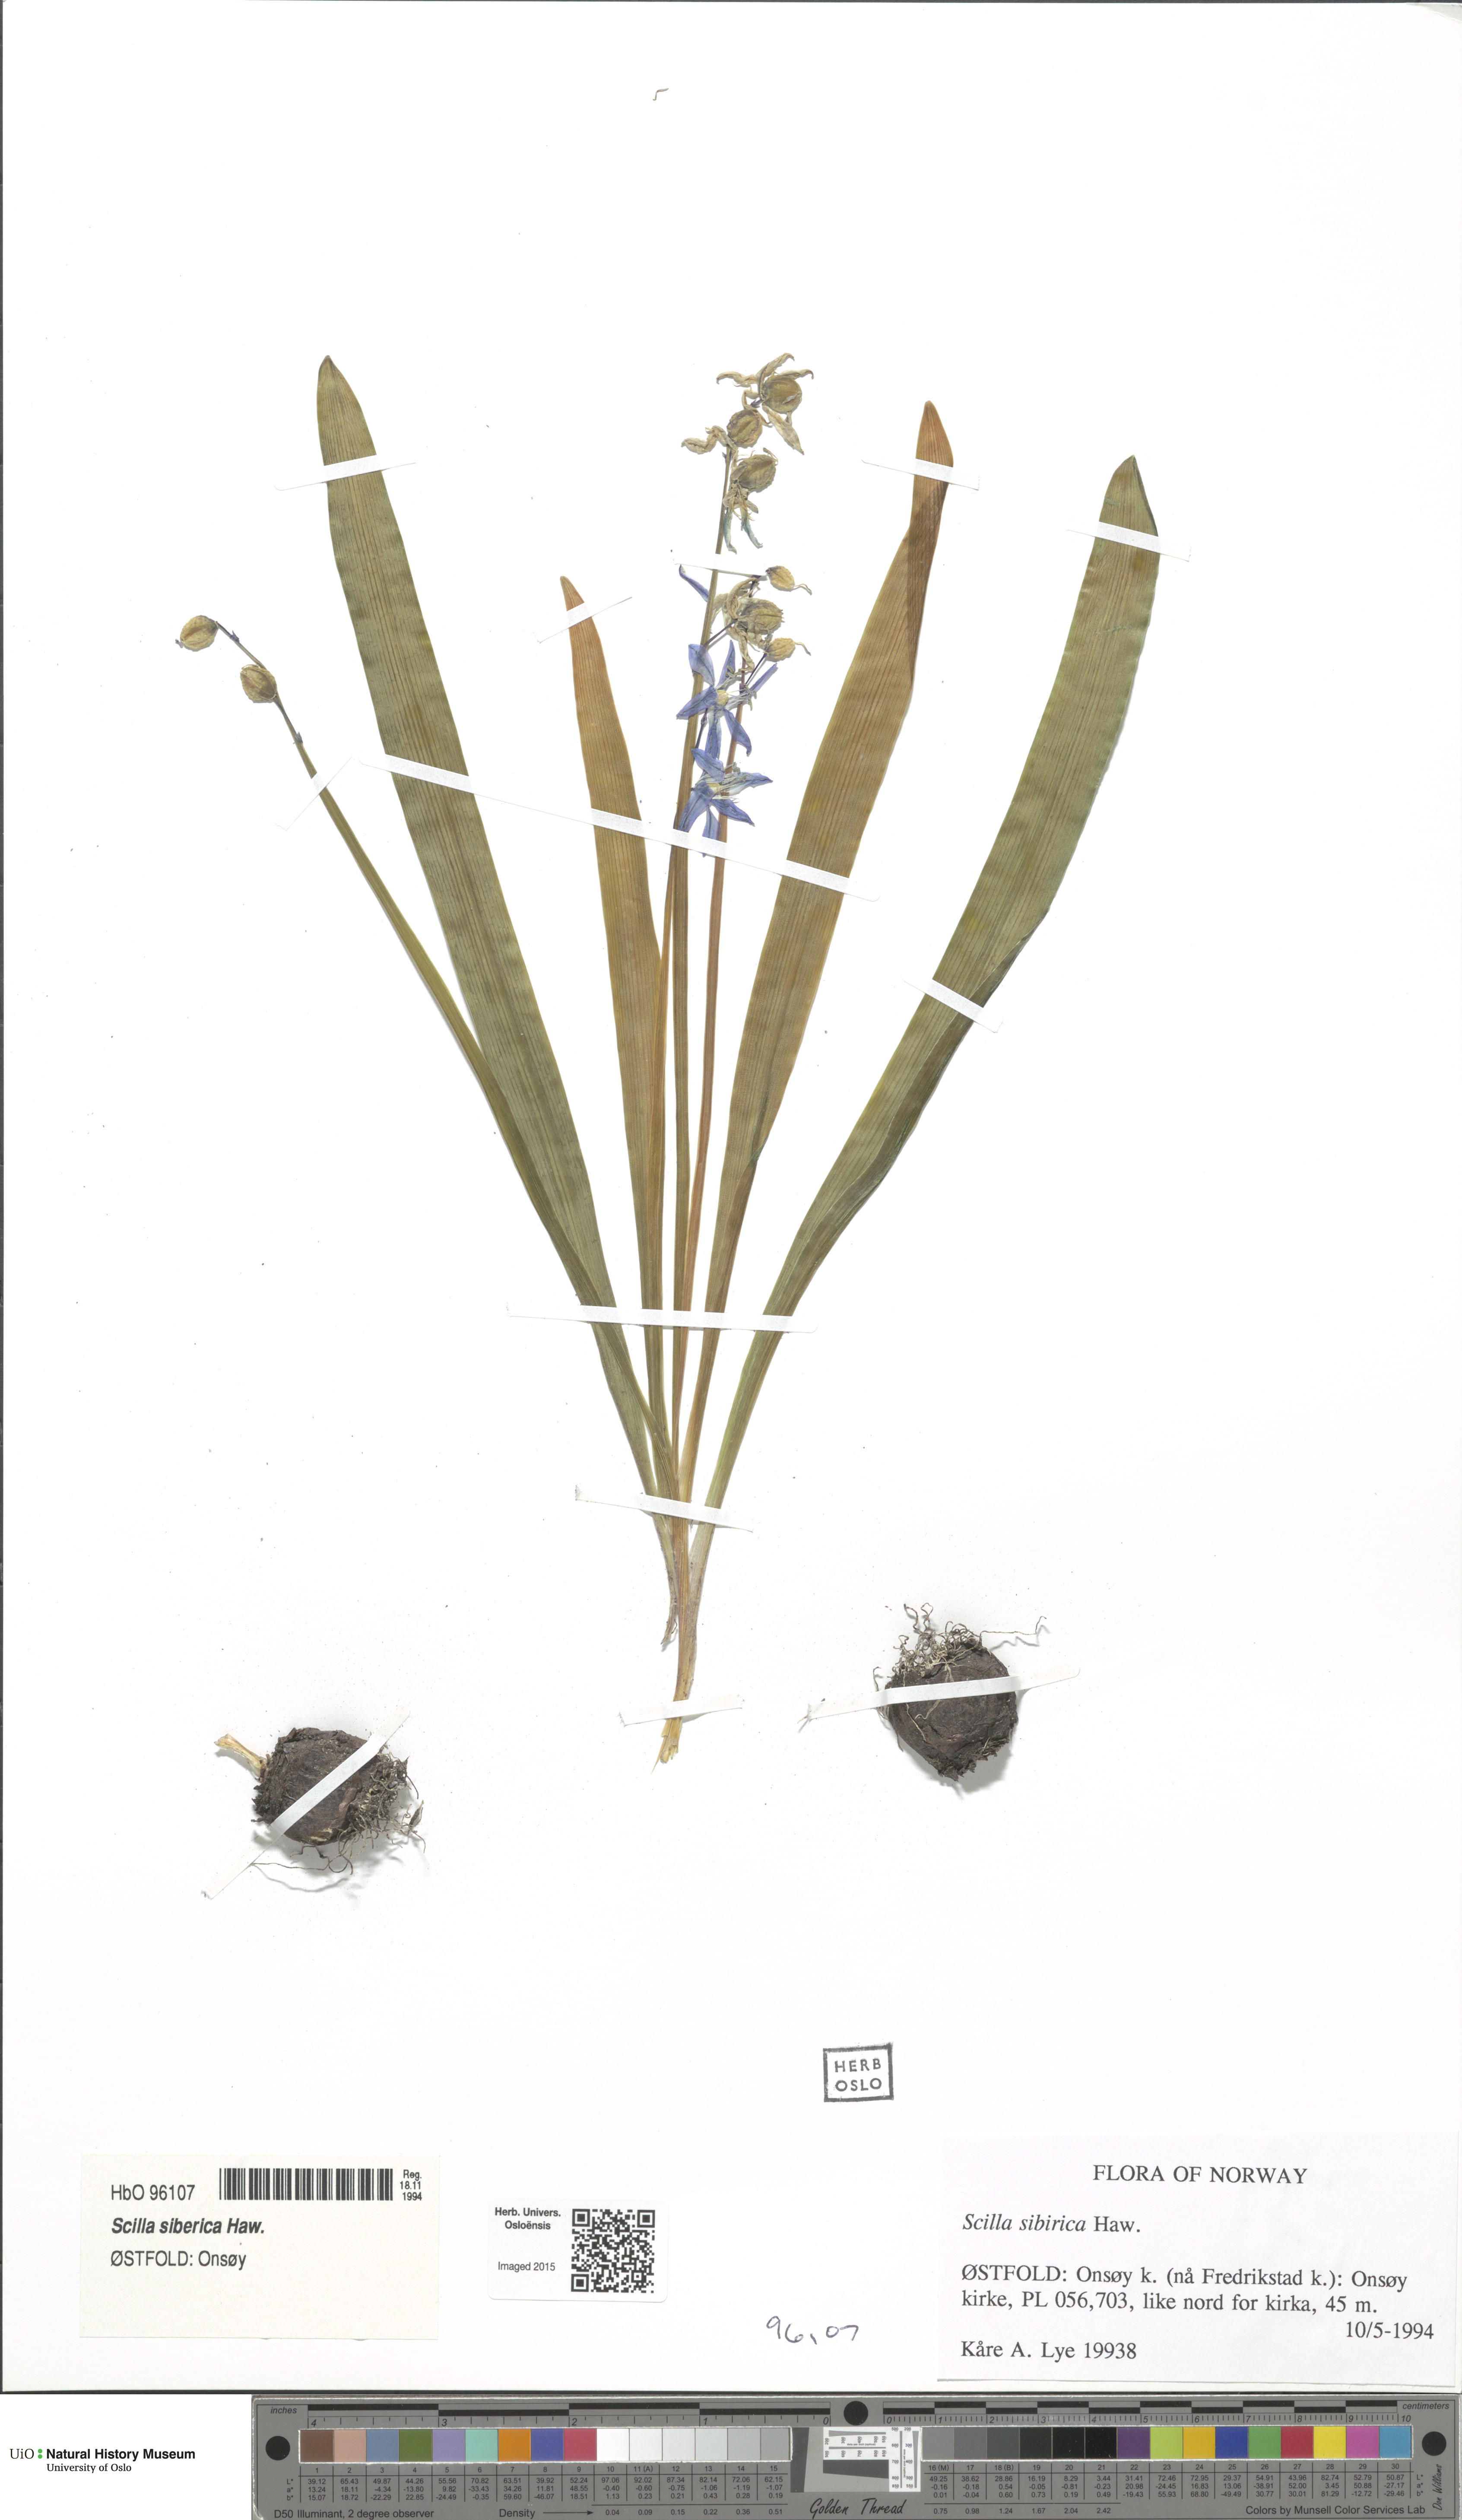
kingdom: Plantae
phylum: Tracheophyta
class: Liliopsida
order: Asparagales
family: Asparagaceae
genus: Scilla
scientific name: Scilla siberica
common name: Siberian squill
